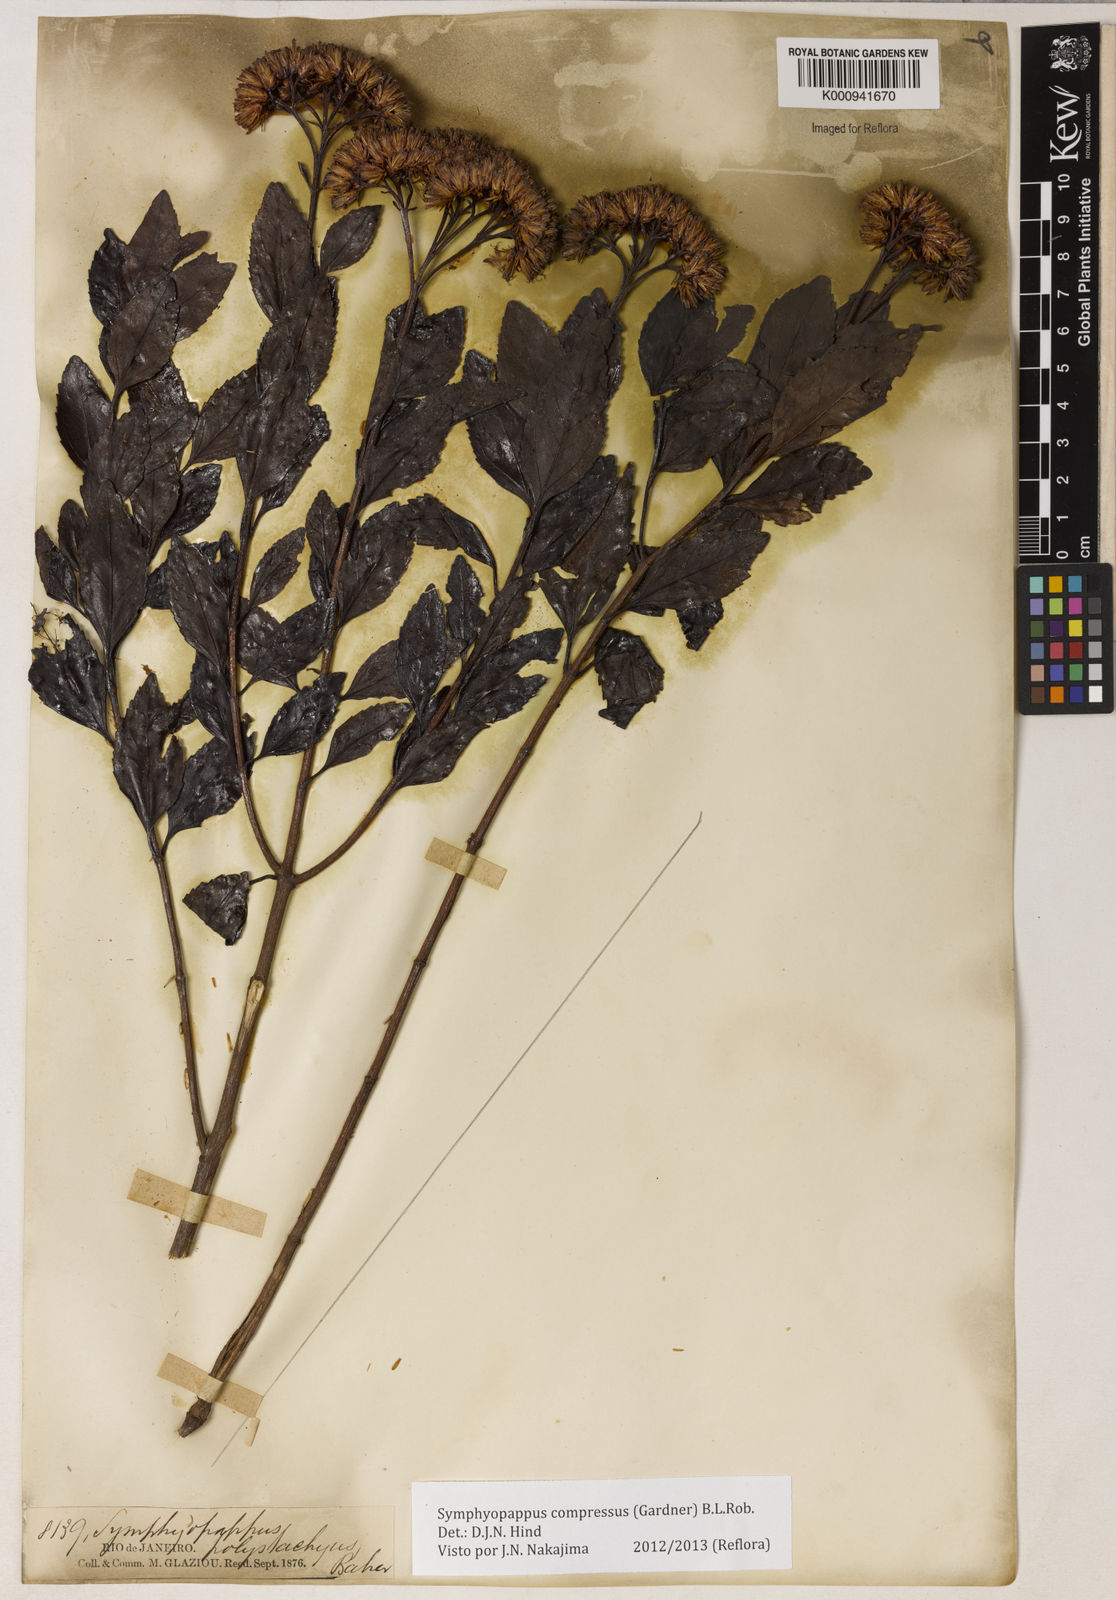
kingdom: Plantae
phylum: Tracheophyta
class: Magnoliopsida
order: Asterales
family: Asteraceae
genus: Symphyopappus
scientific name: Symphyopappus compressus
